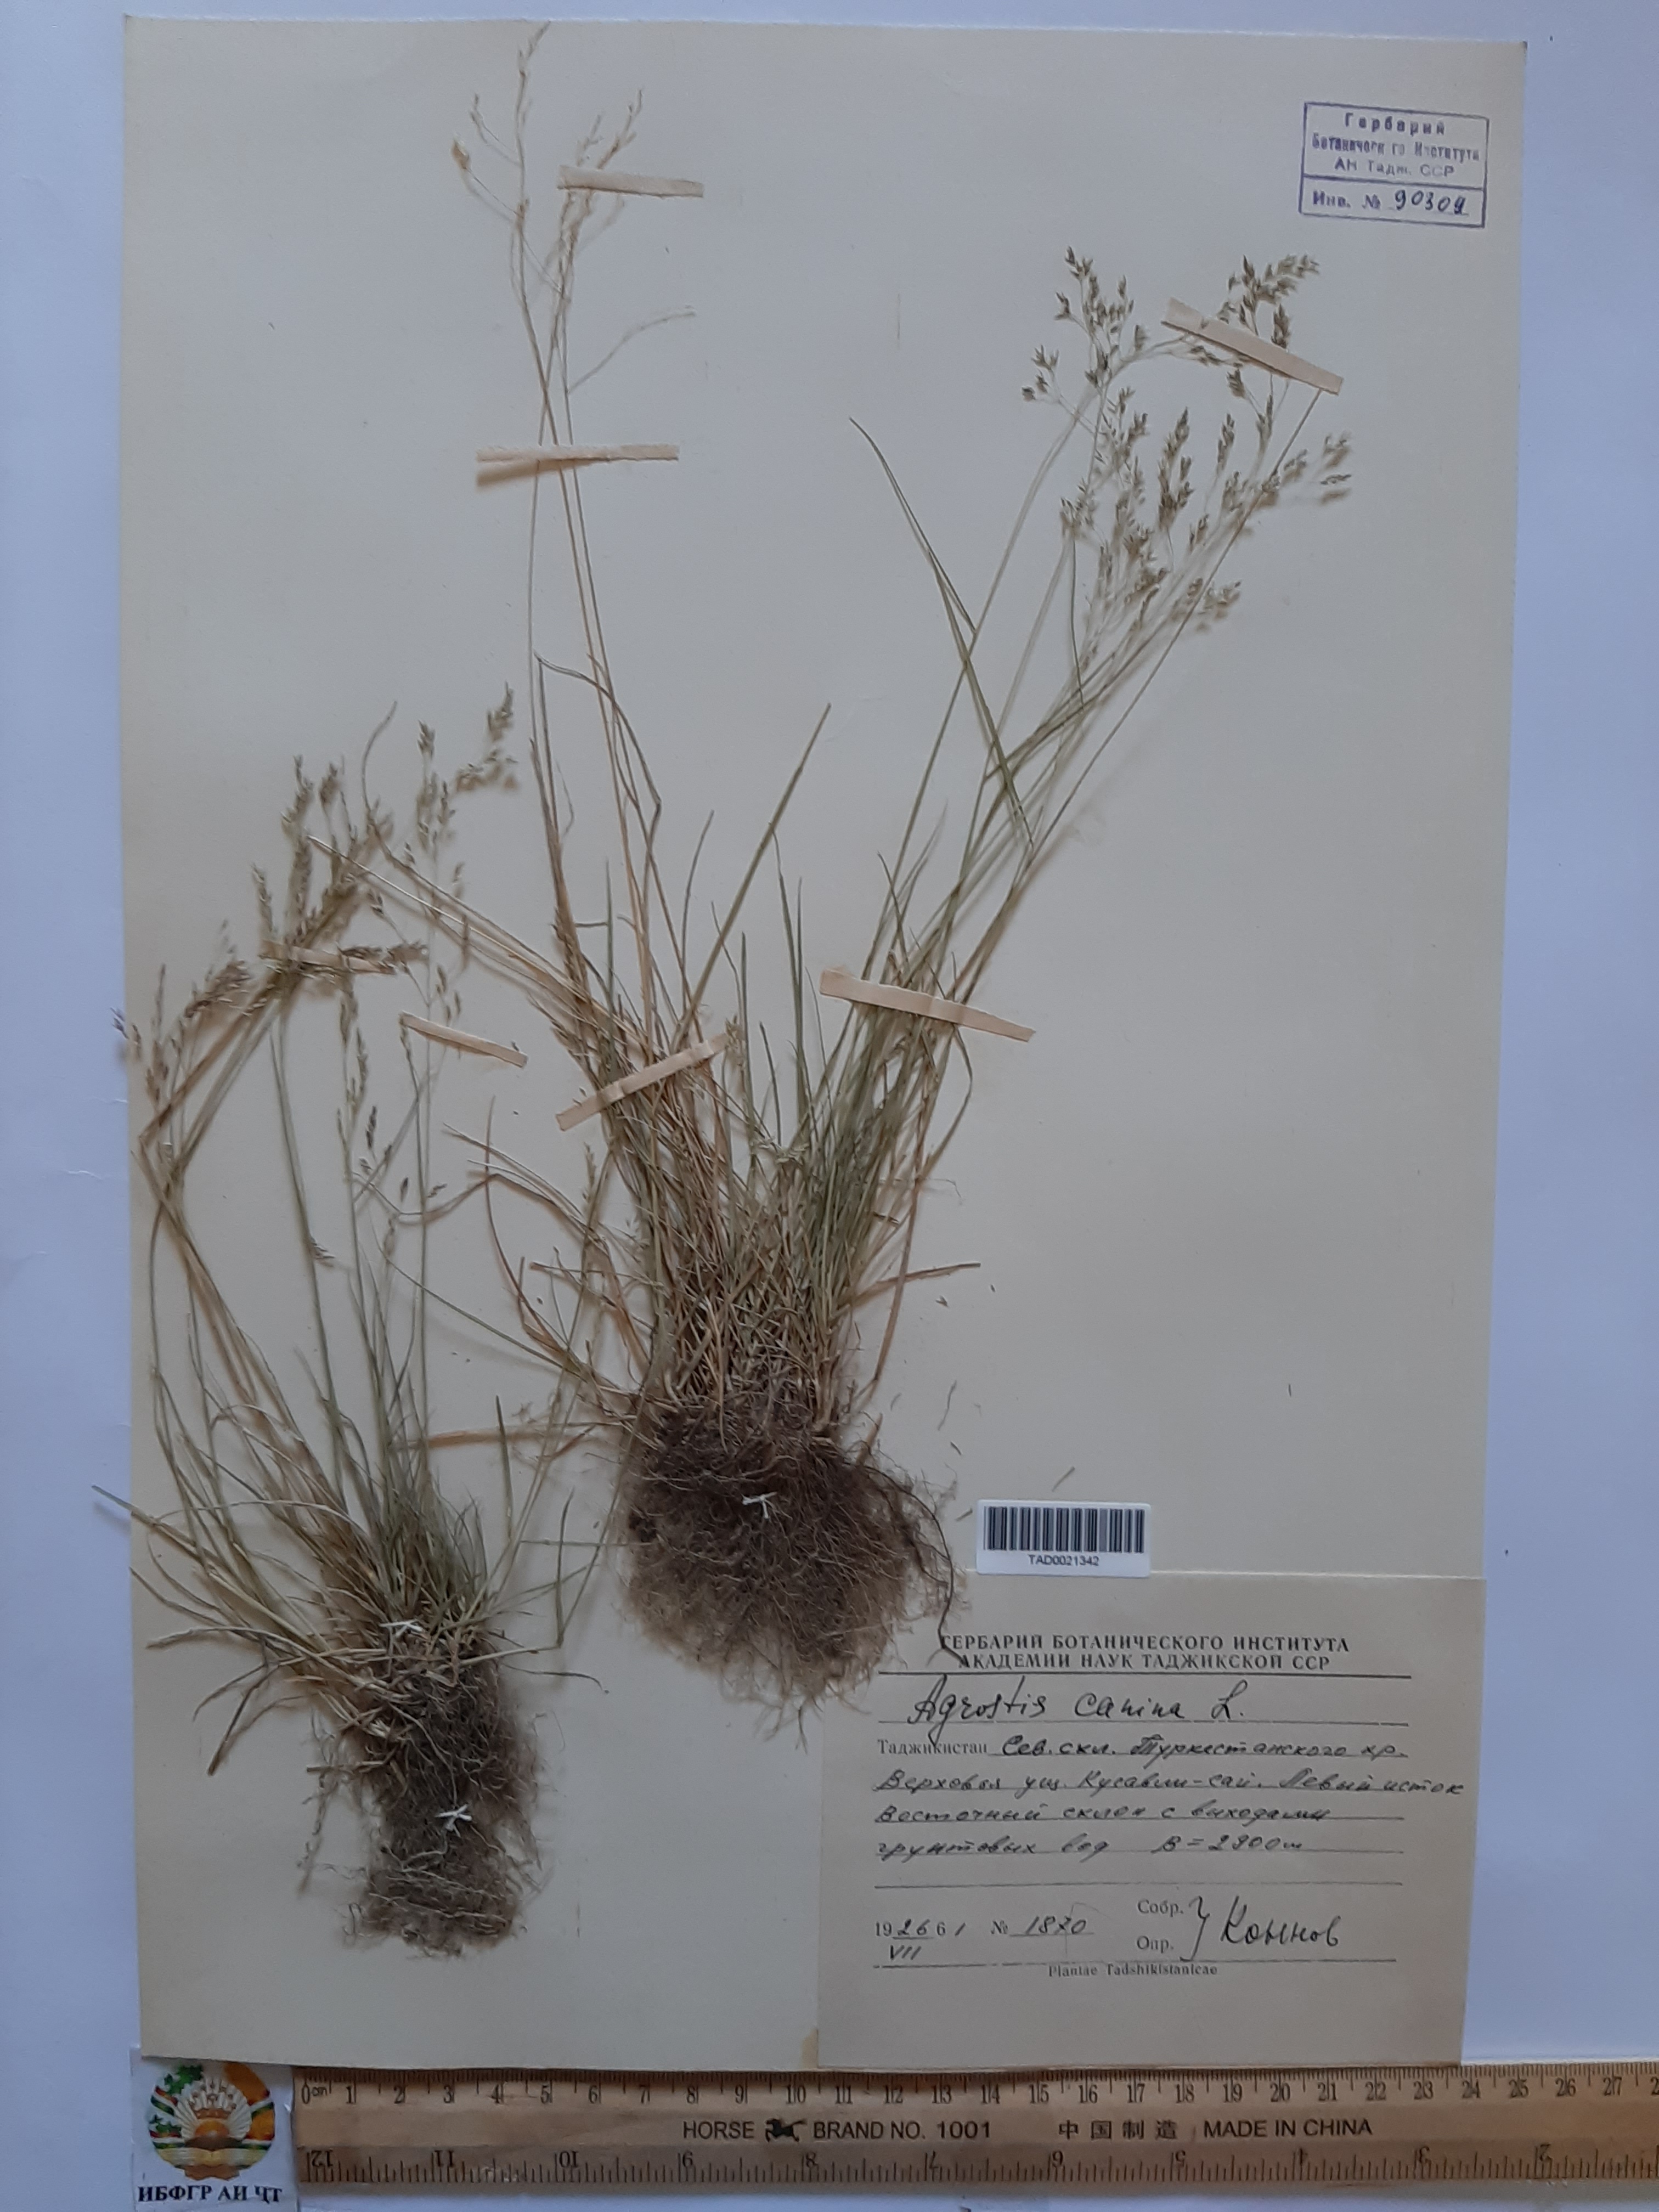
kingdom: Plantae
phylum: Tracheophyta
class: Liliopsida
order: Poales
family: Poaceae
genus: Agrostis
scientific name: Agrostis canina
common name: Velvet bent
